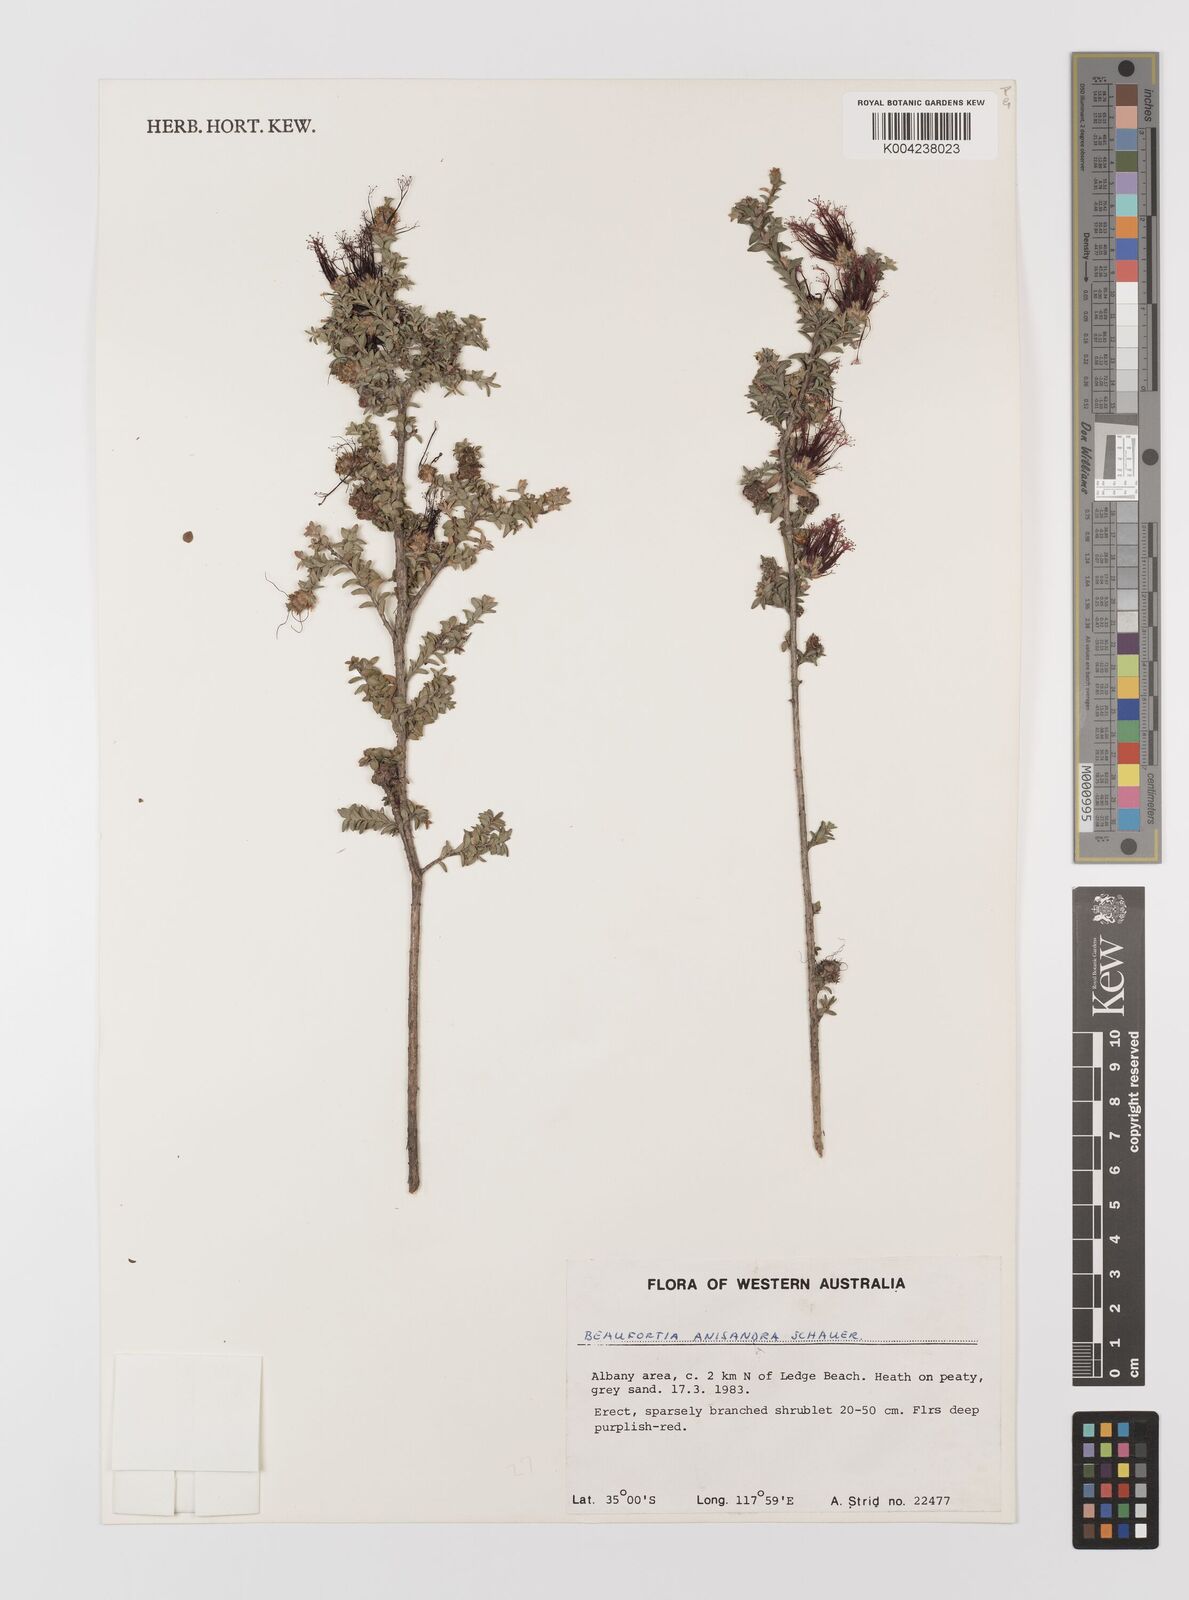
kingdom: Plantae
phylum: Tracheophyta
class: Magnoliopsida
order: Myrtales
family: Myrtaceae
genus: Melaleuca
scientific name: Melaleuca anisandra
